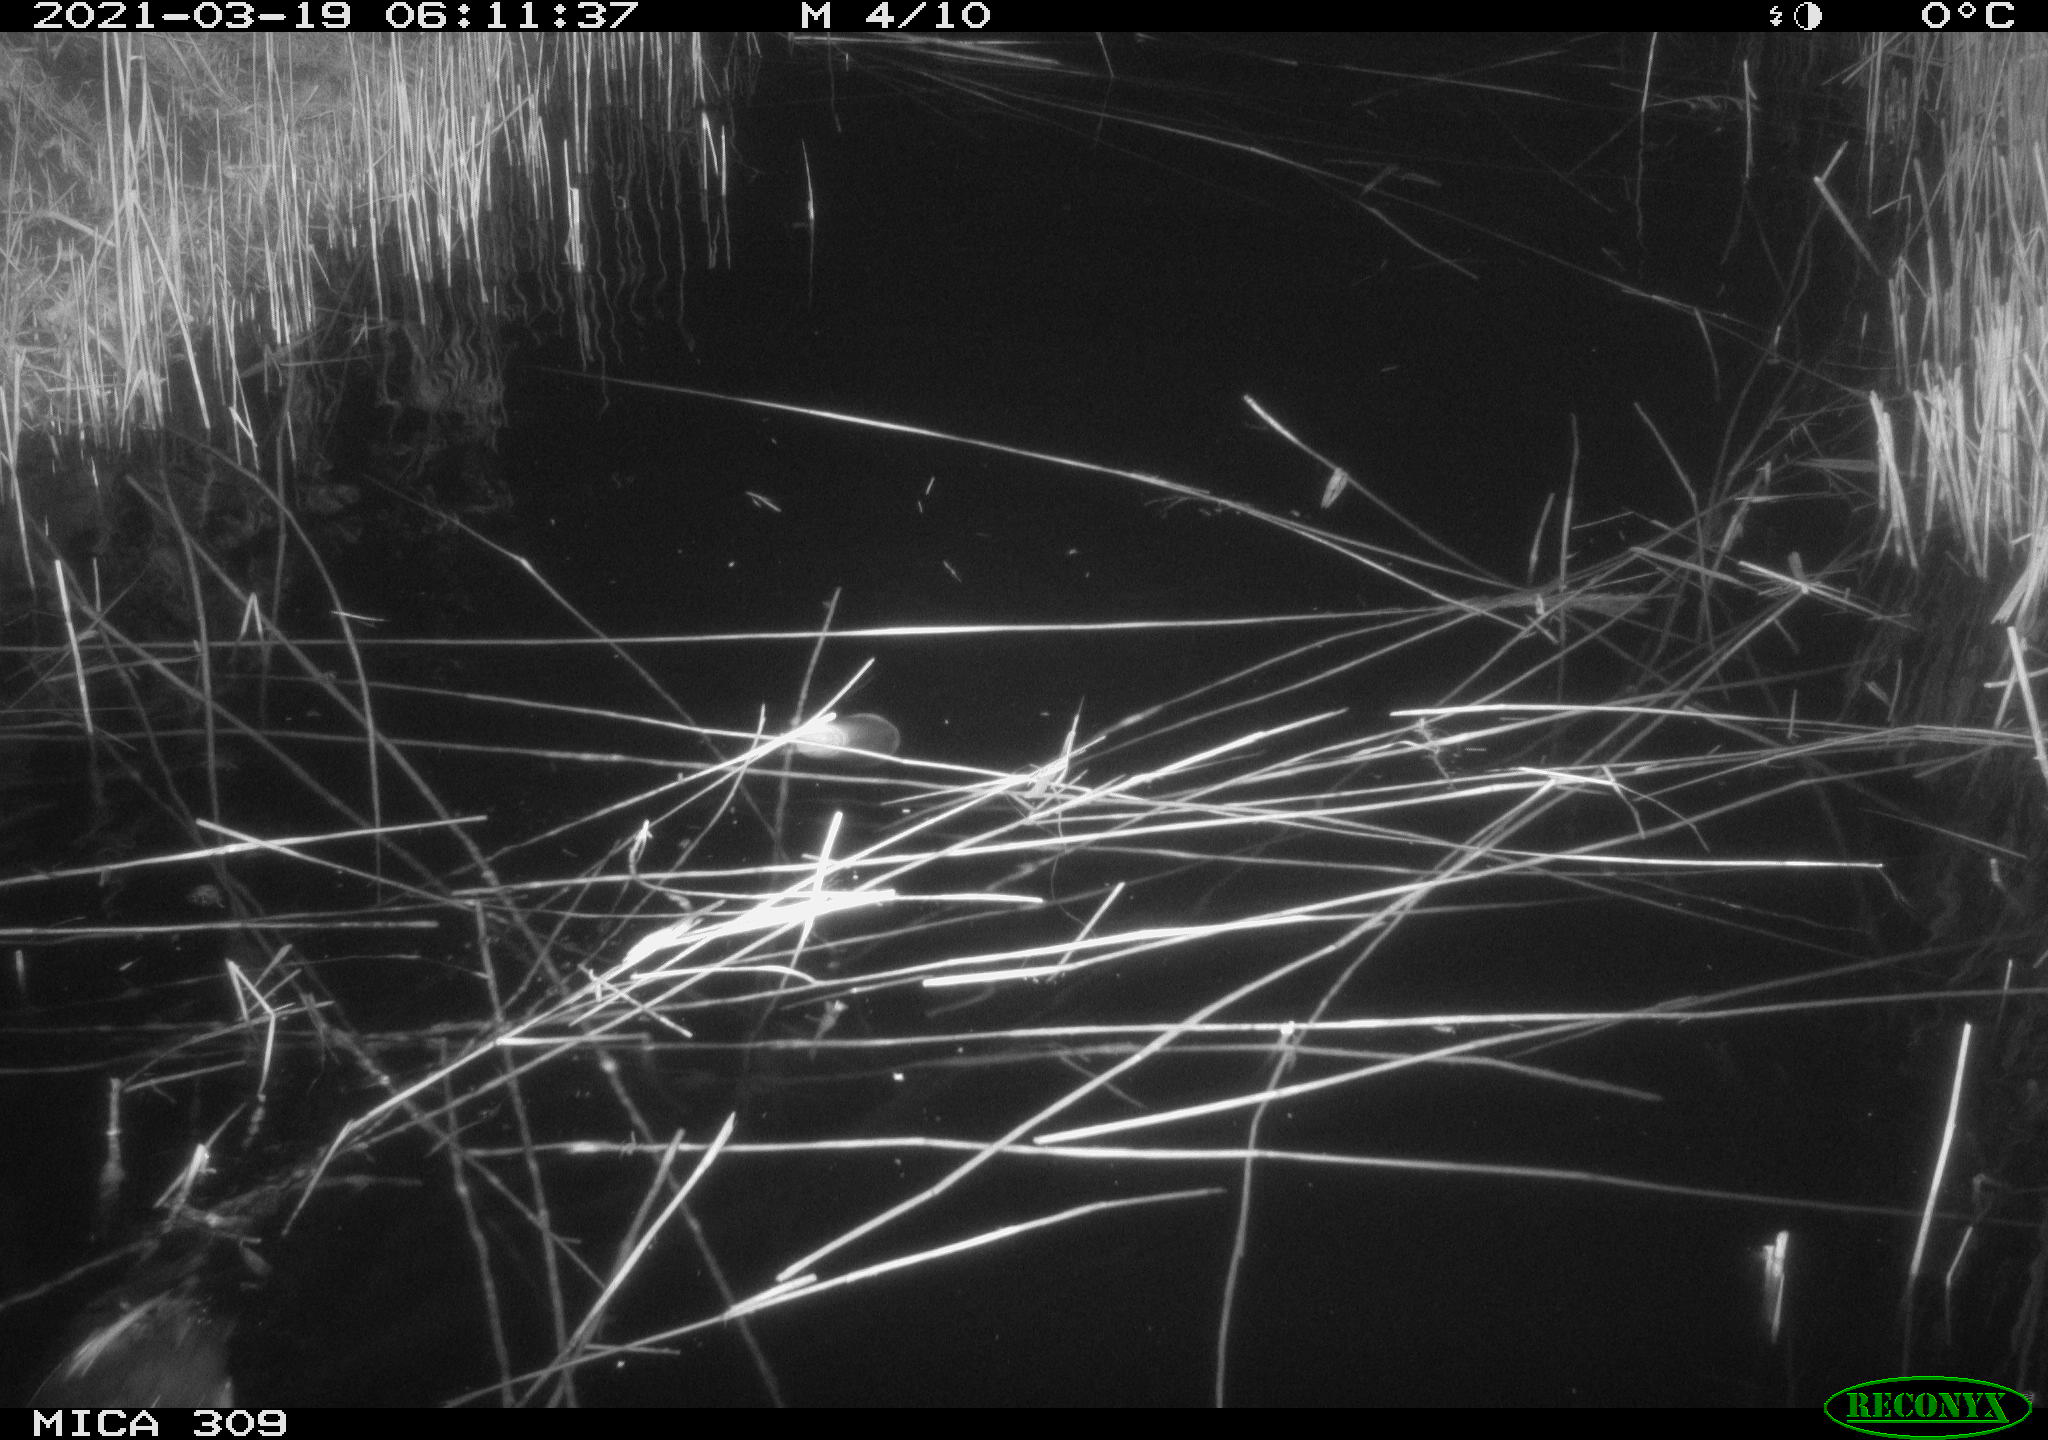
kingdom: Animalia
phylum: Chordata
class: Aves
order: Gruiformes
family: Rallidae
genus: Fulica
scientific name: Fulica atra
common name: Eurasian coot
